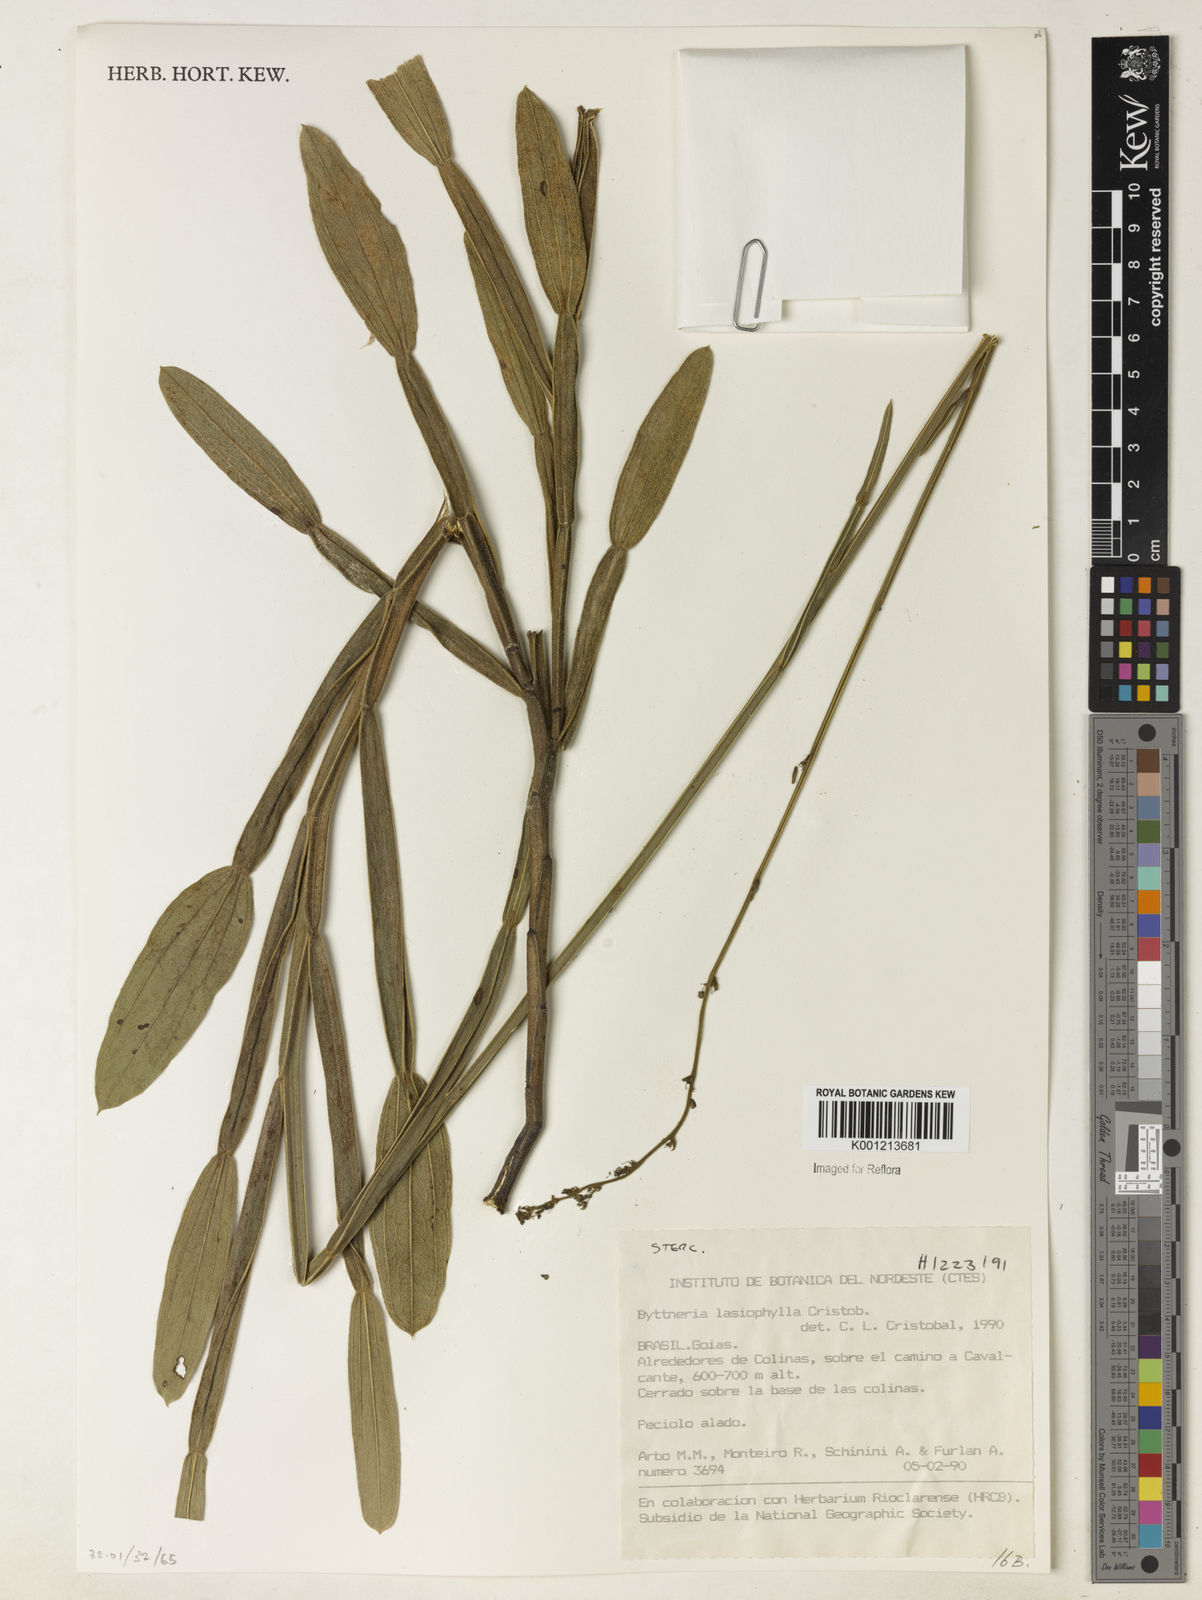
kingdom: Plantae
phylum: Tracheophyta
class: Magnoliopsida
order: Malvales
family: Malvaceae
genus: Byttneria
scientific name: Byttneria
